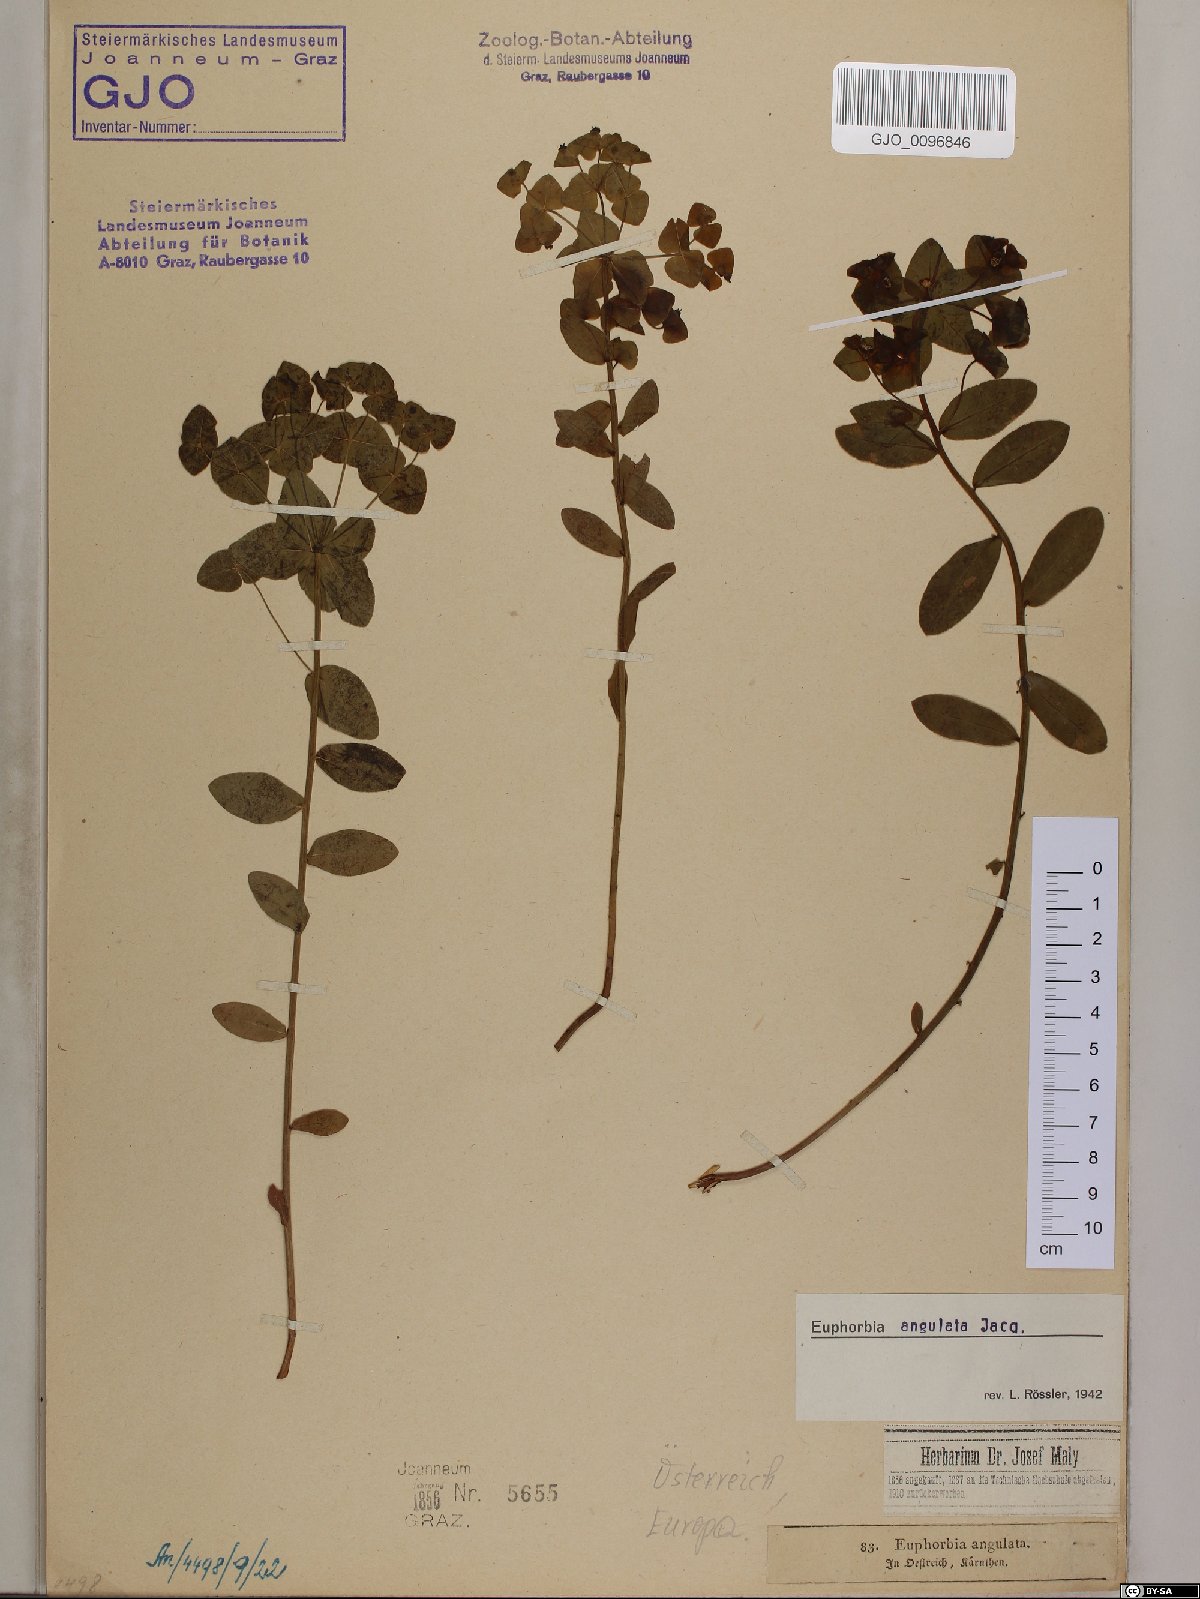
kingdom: Plantae
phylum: Tracheophyta
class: Magnoliopsida
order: Malpighiales
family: Euphorbiaceae
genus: Euphorbia
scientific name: Euphorbia angulata
